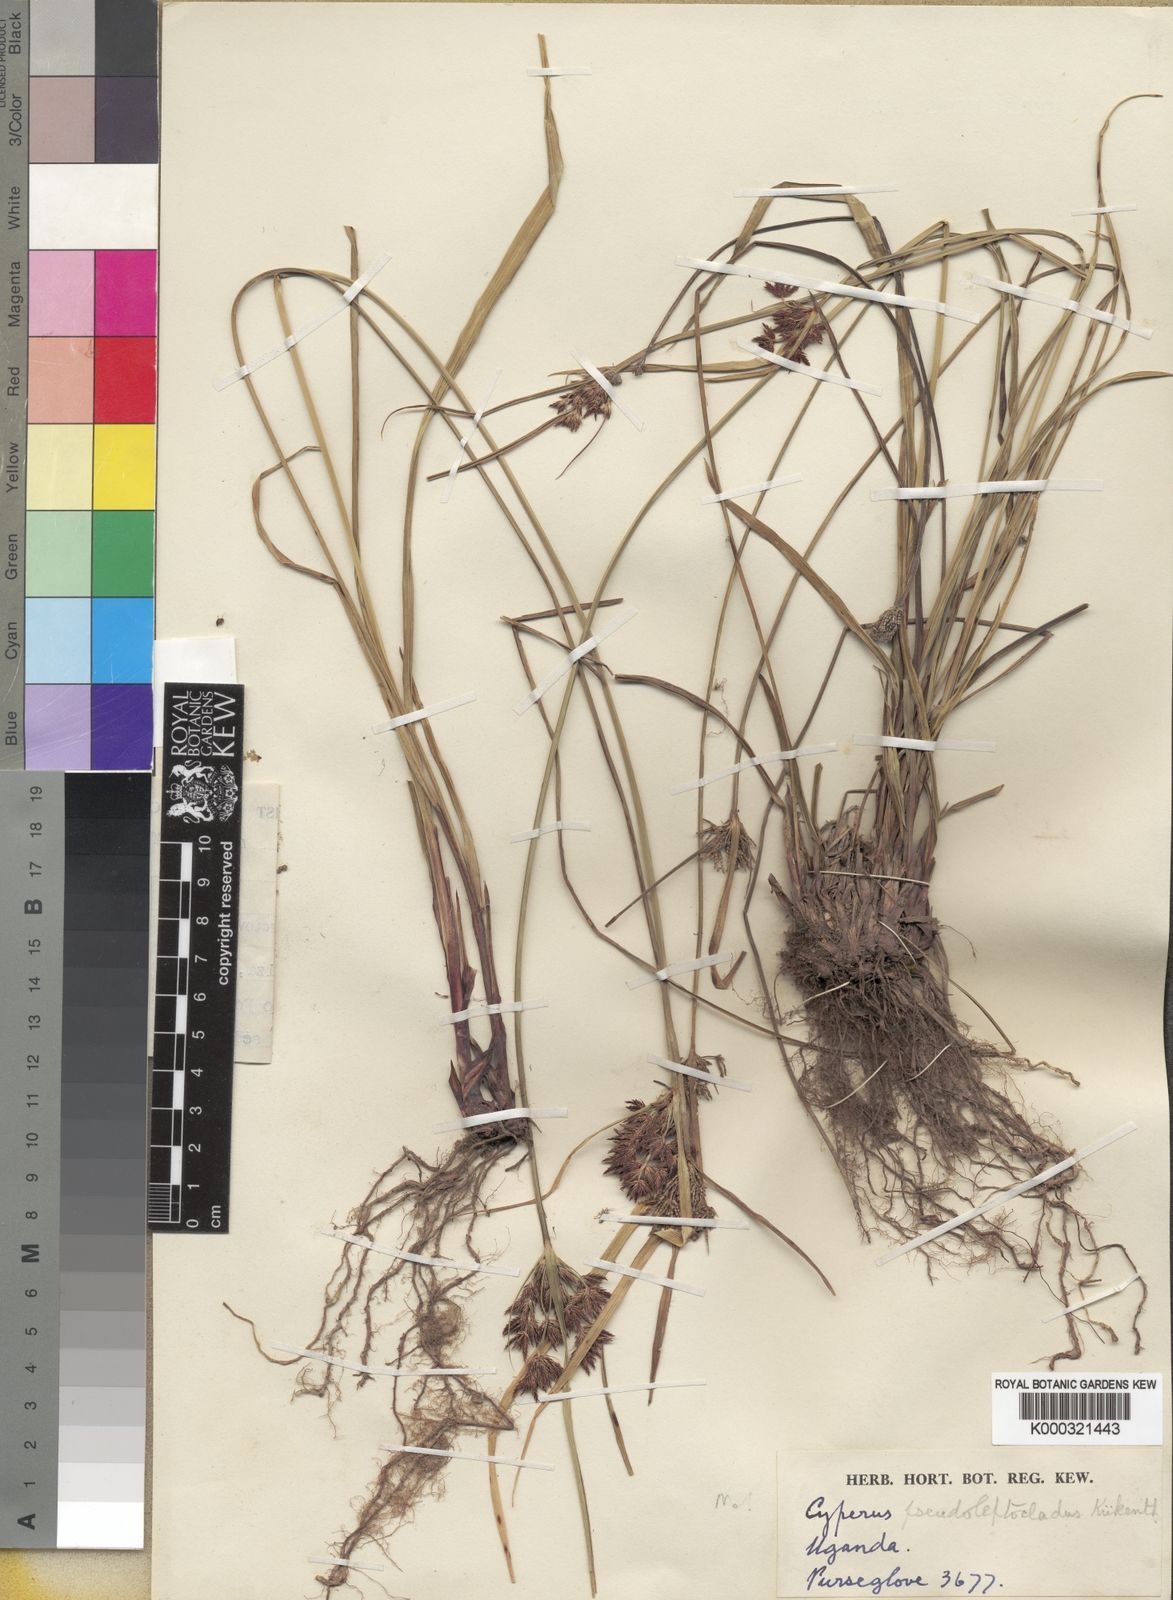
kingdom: Plantae
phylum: Tracheophyta
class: Liliopsida
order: Poales
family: Cyperaceae
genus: Cyperus
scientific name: Cyperus afromontanus
